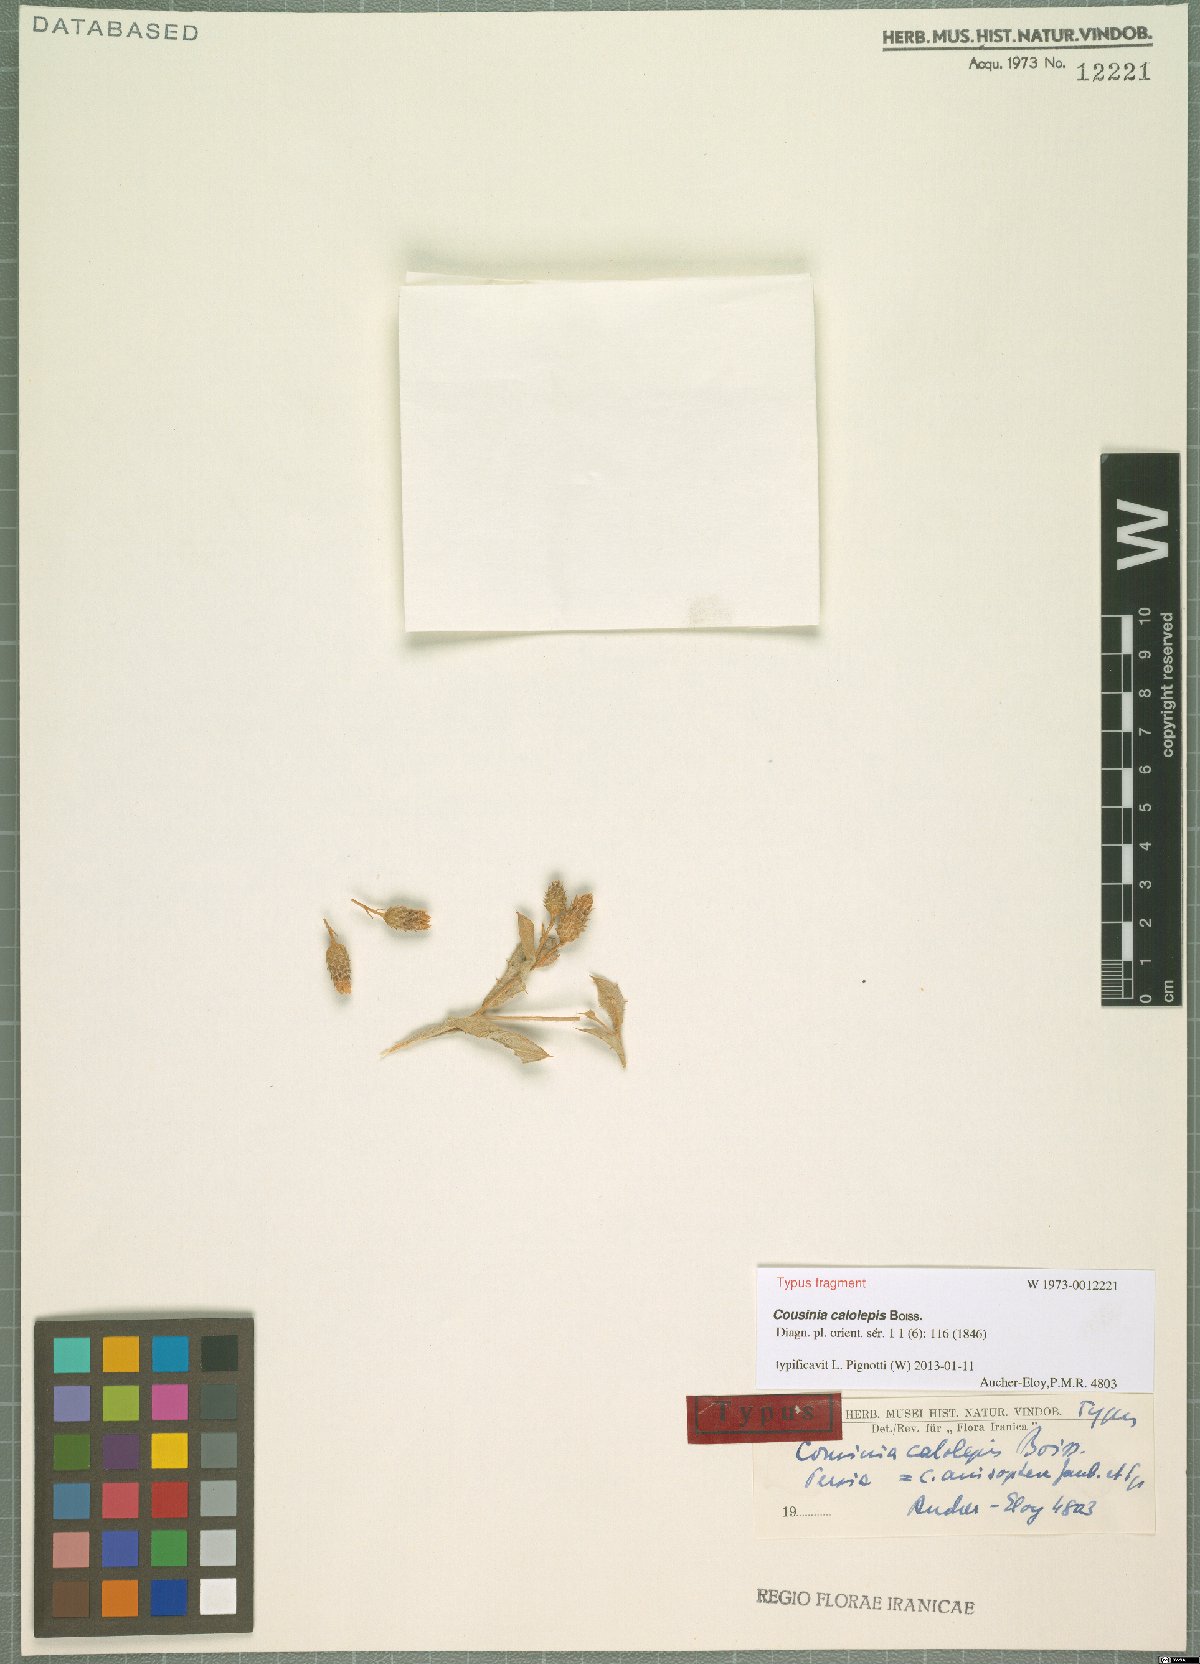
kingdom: Plantae
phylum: Tracheophyta
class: Magnoliopsida
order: Asterales
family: Asteraceae
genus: Cousinia
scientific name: Cousinia calolepis
